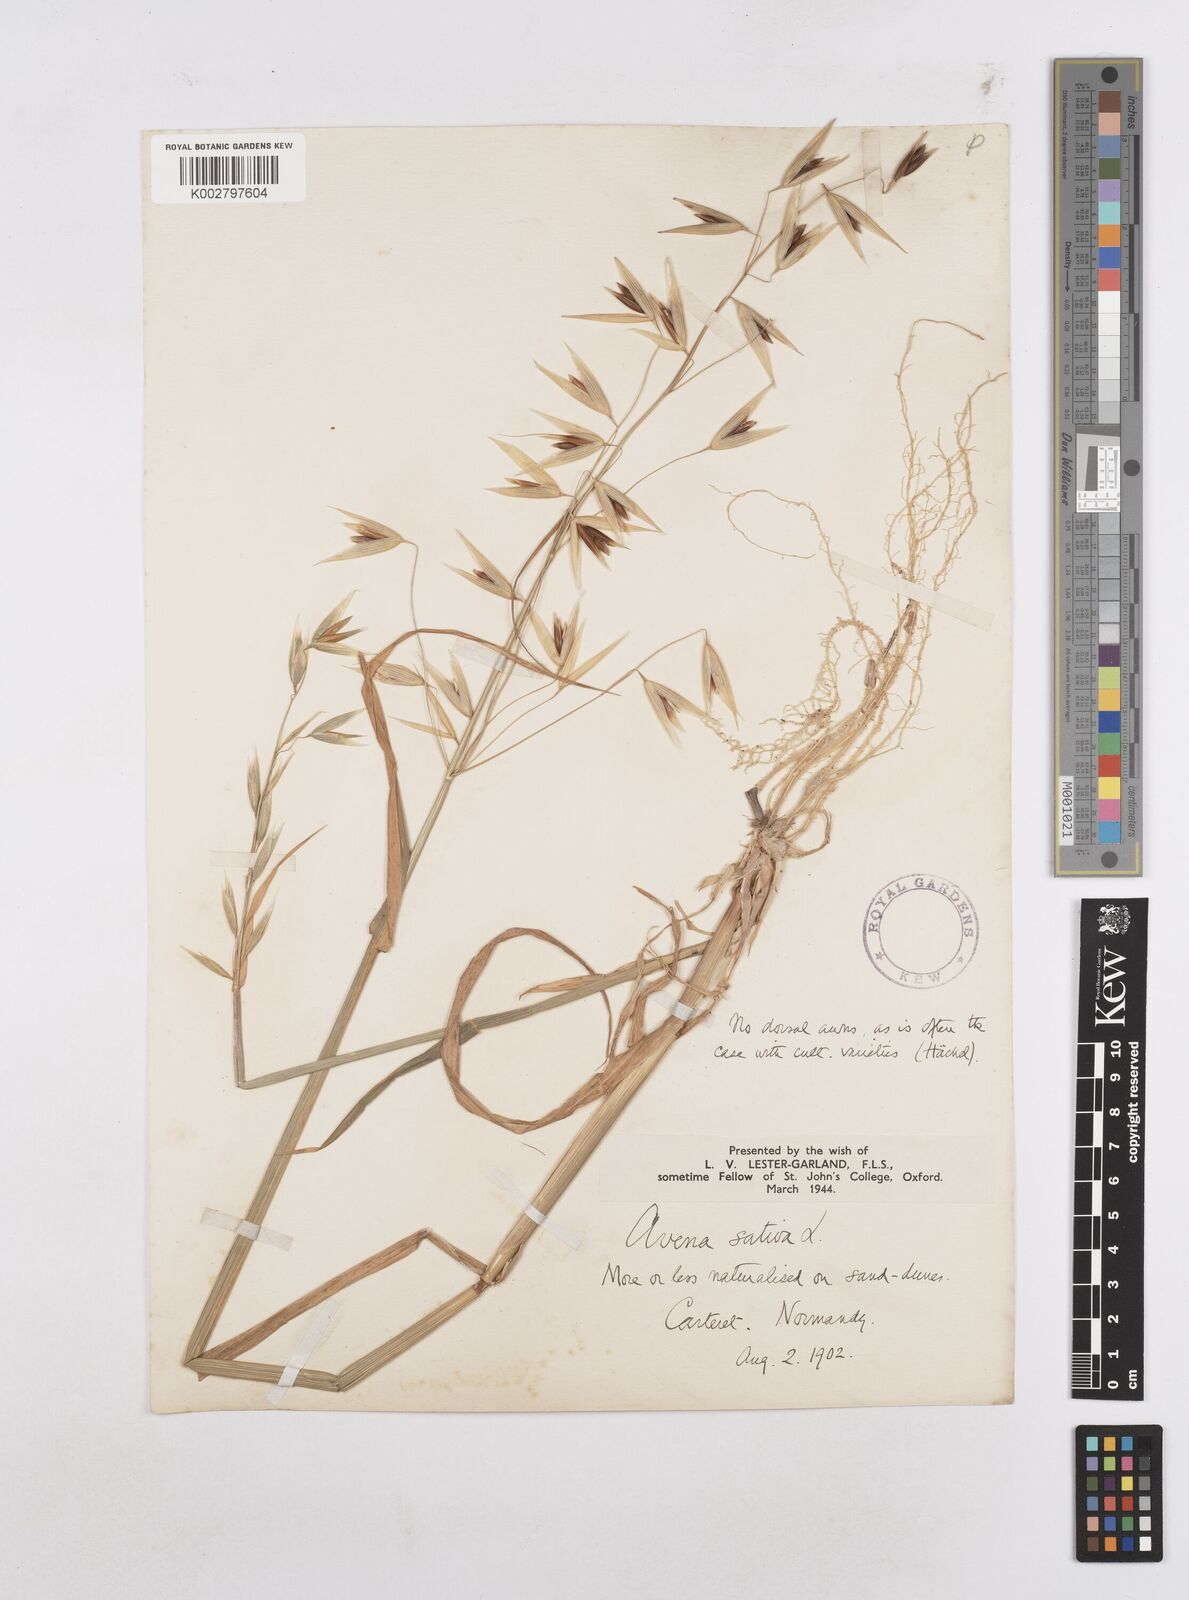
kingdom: Plantae
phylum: Tracheophyta
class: Liliopsida
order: Poales
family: Poaceae
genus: Avena
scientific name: Avena sativa
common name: Oat
